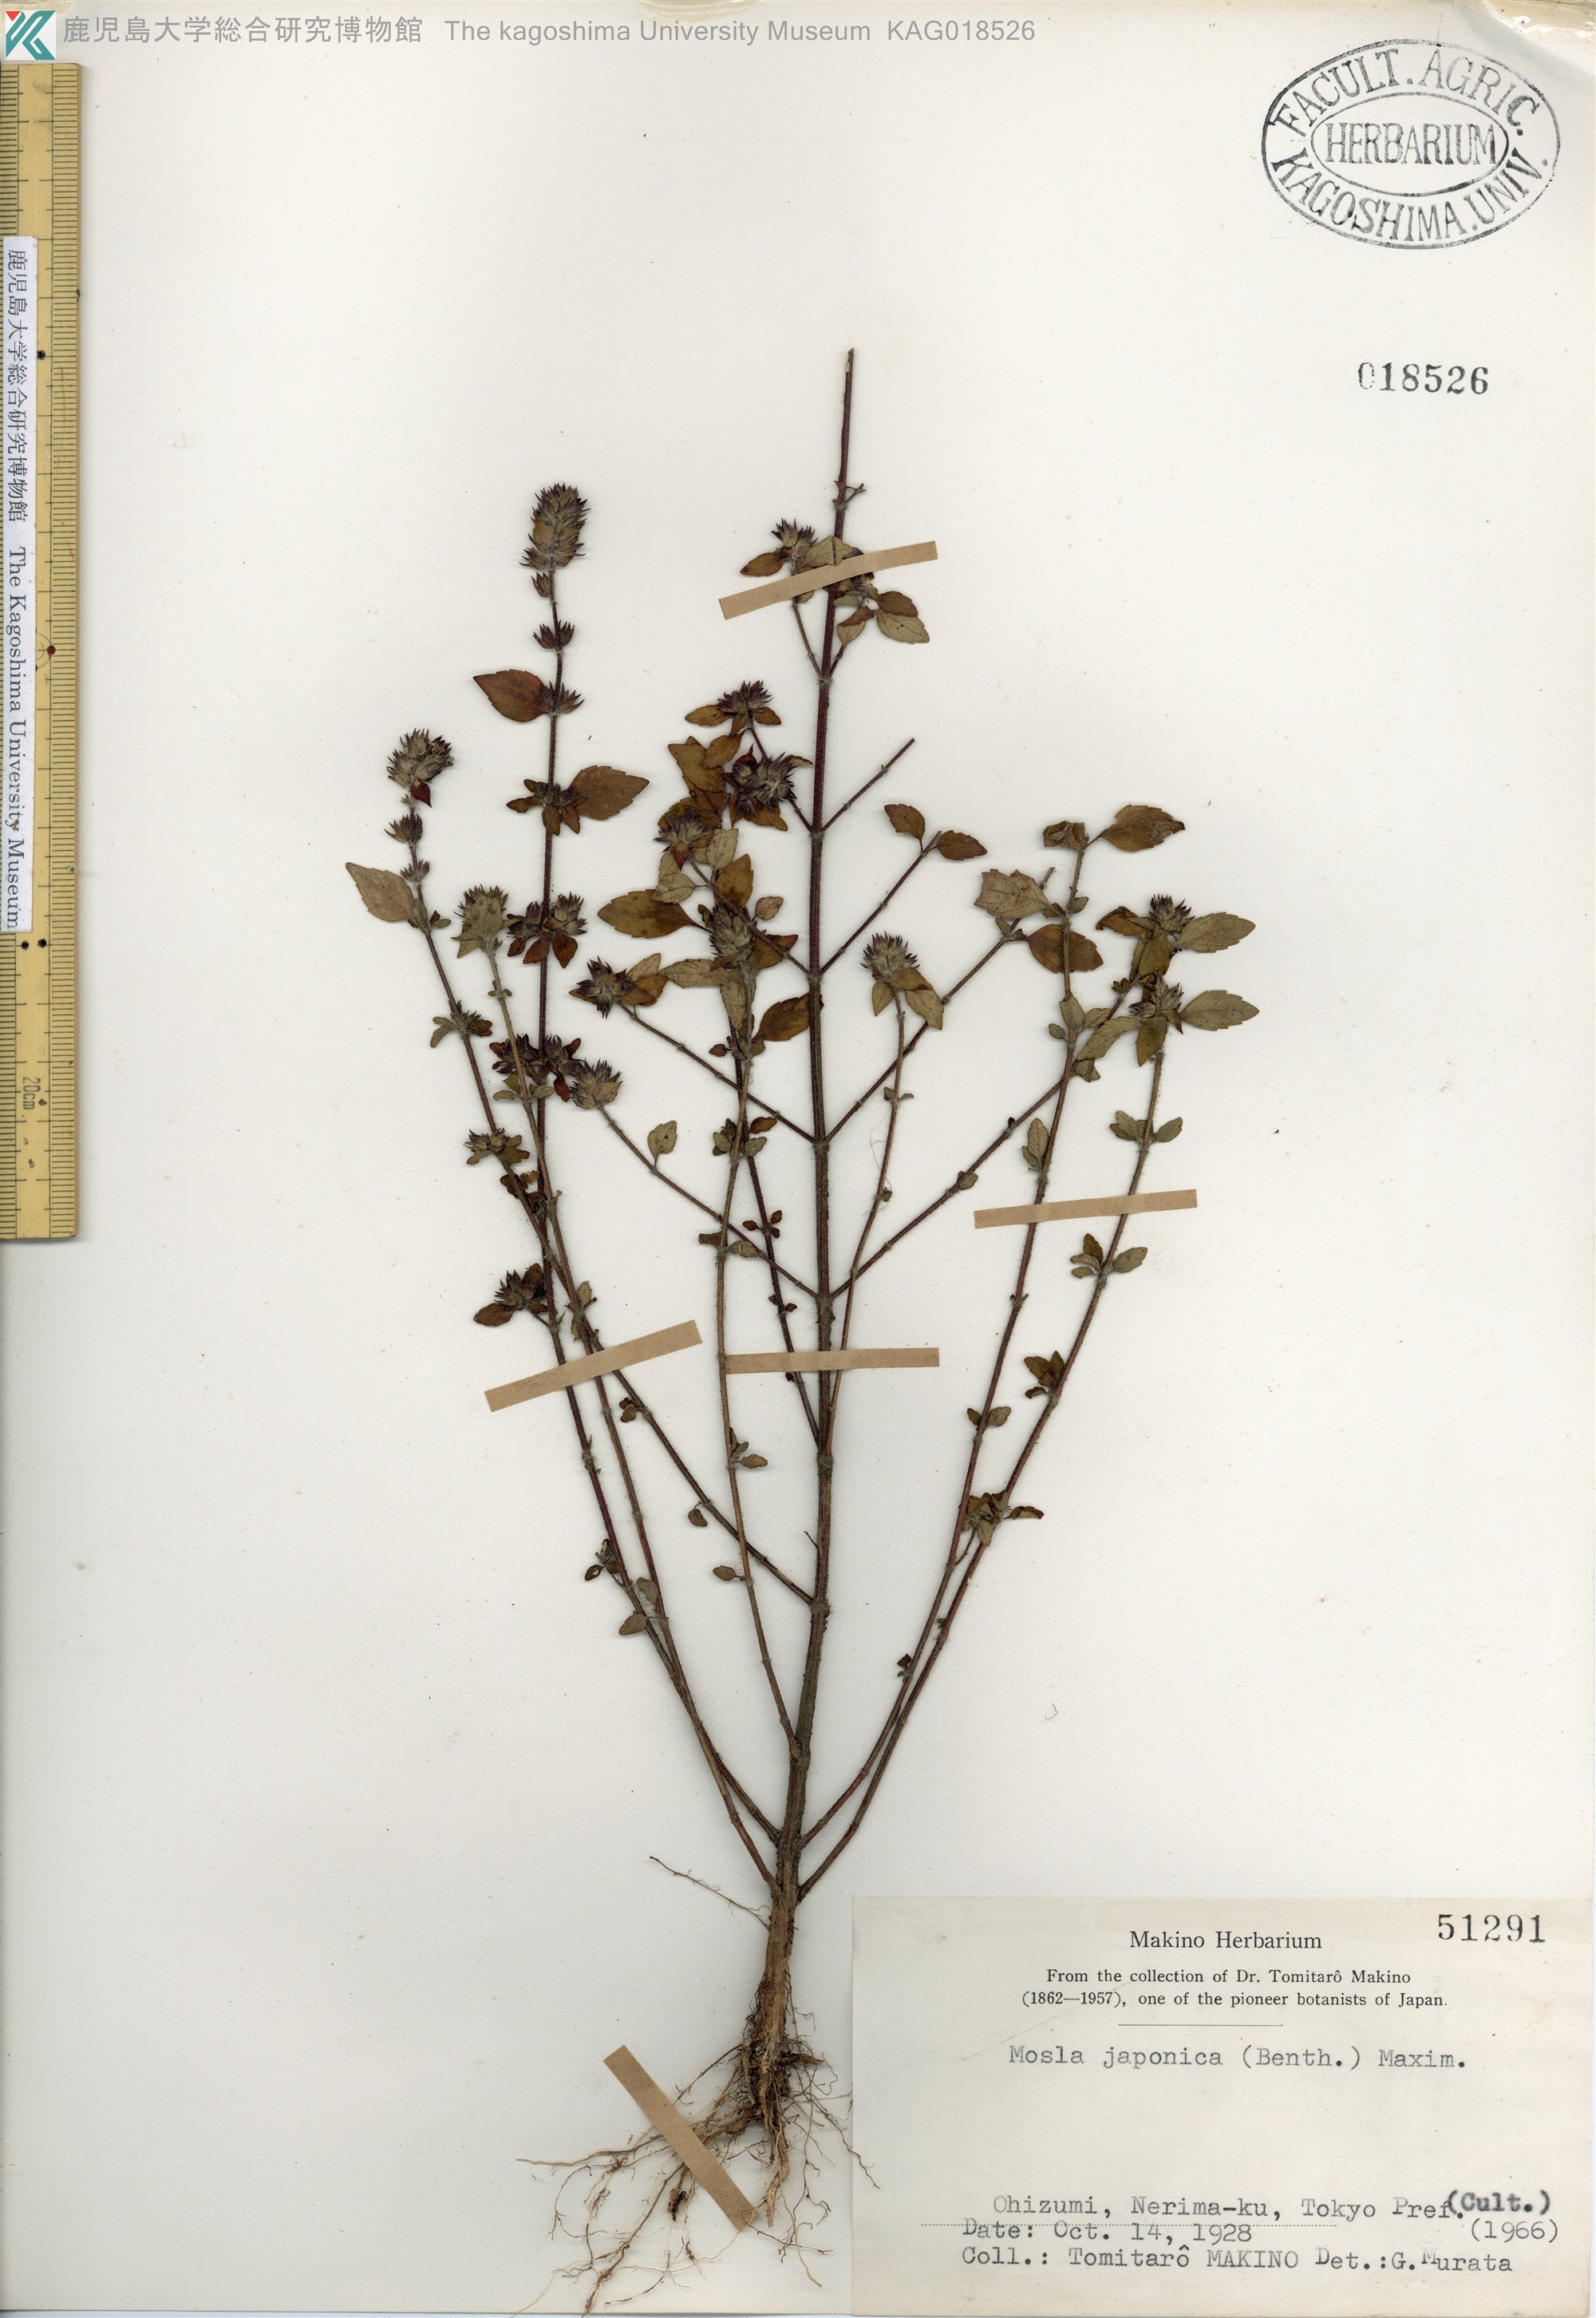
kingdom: Plantae
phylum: Tracheophyta
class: Magnoliopsida
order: Lamiales
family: Lamiaceae
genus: Mosla
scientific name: Mosla japonica
